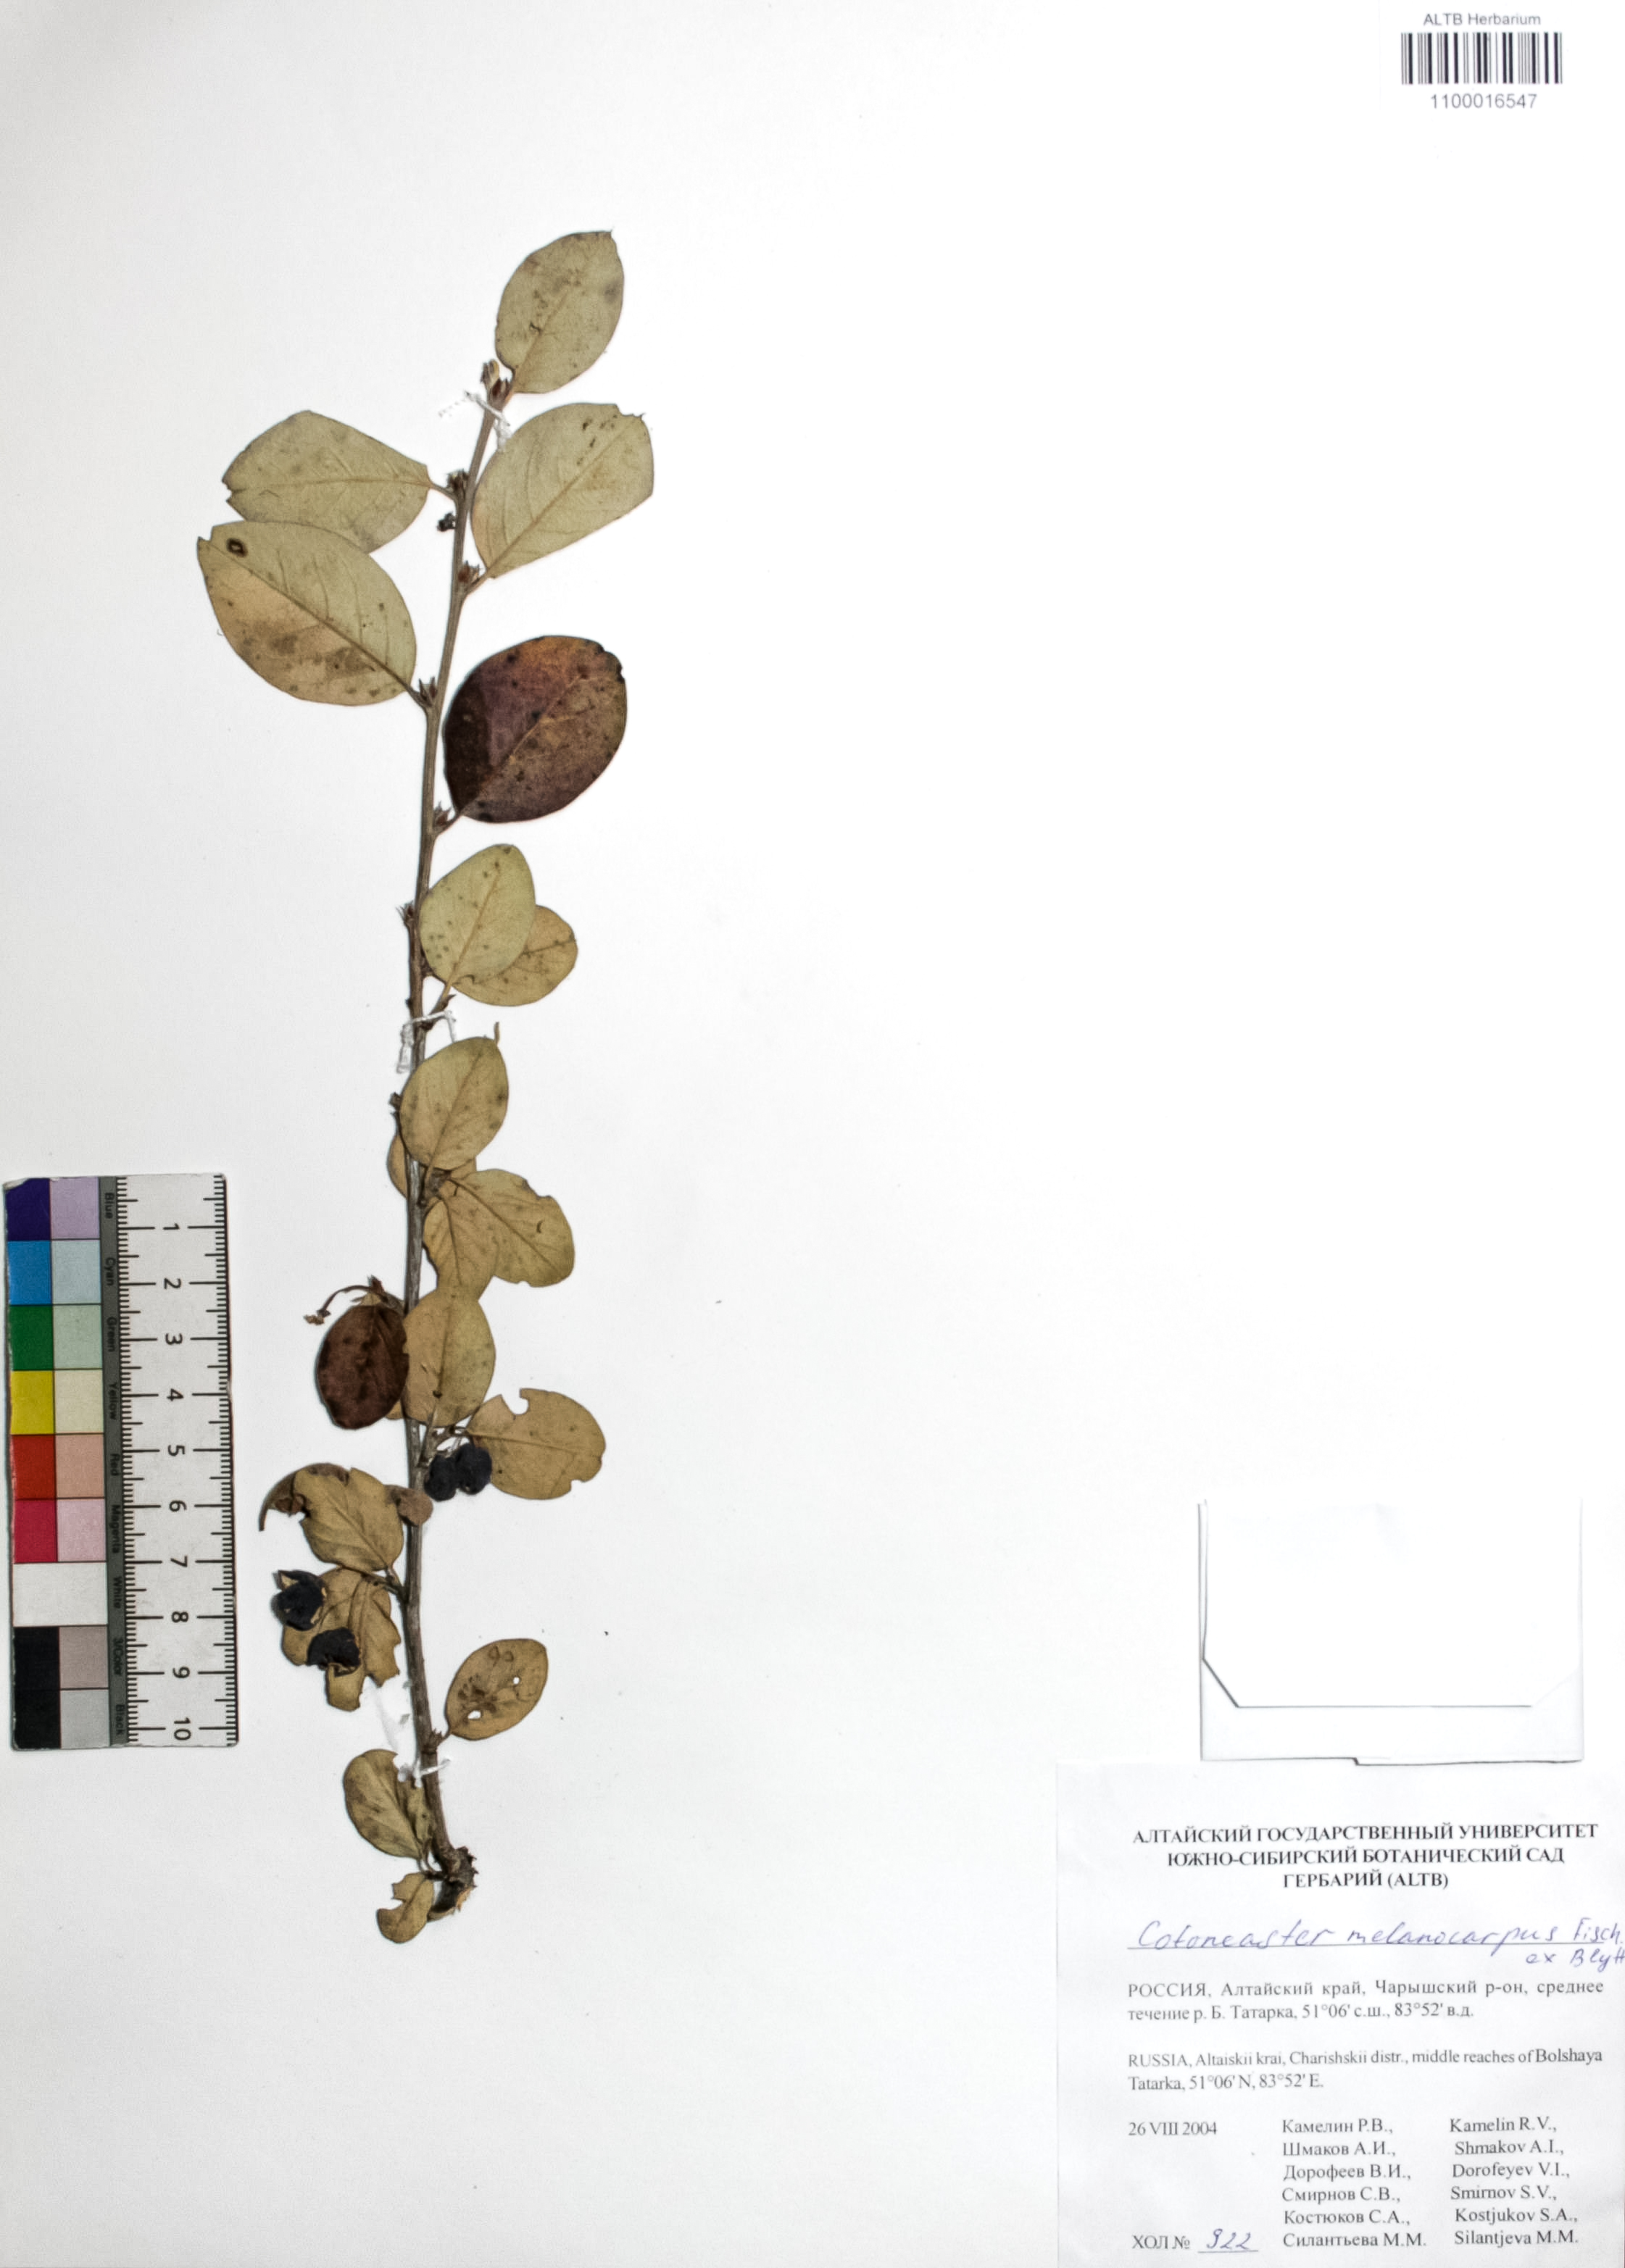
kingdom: Plantae
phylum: Tracheophyta
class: Magnoliopsida
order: Rosales
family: Rosaceae
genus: Cotoneaster
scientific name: Cotoneaster niger
